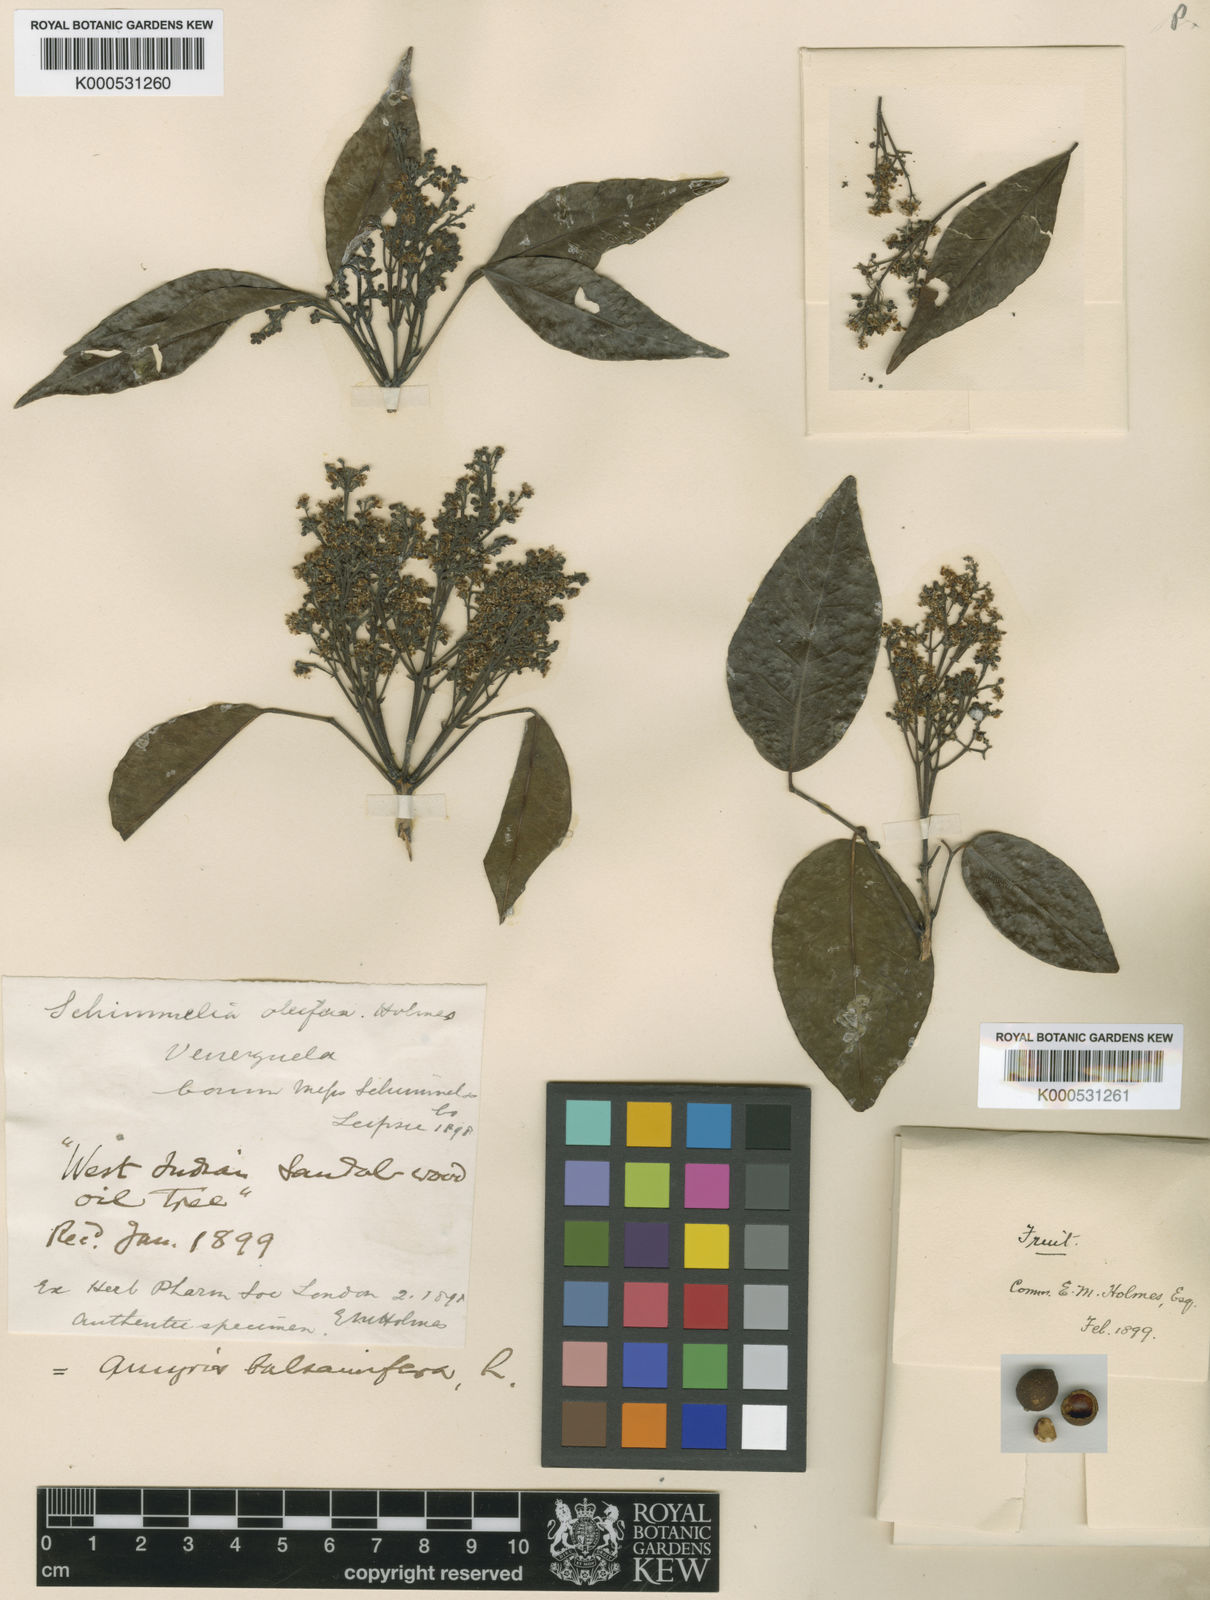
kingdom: Plantae
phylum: Tracheophyta
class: Magnoliopsida
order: Sapindales
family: Rutaceae
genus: Amyris
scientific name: Amyris balsamifera
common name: Balsam amyris
